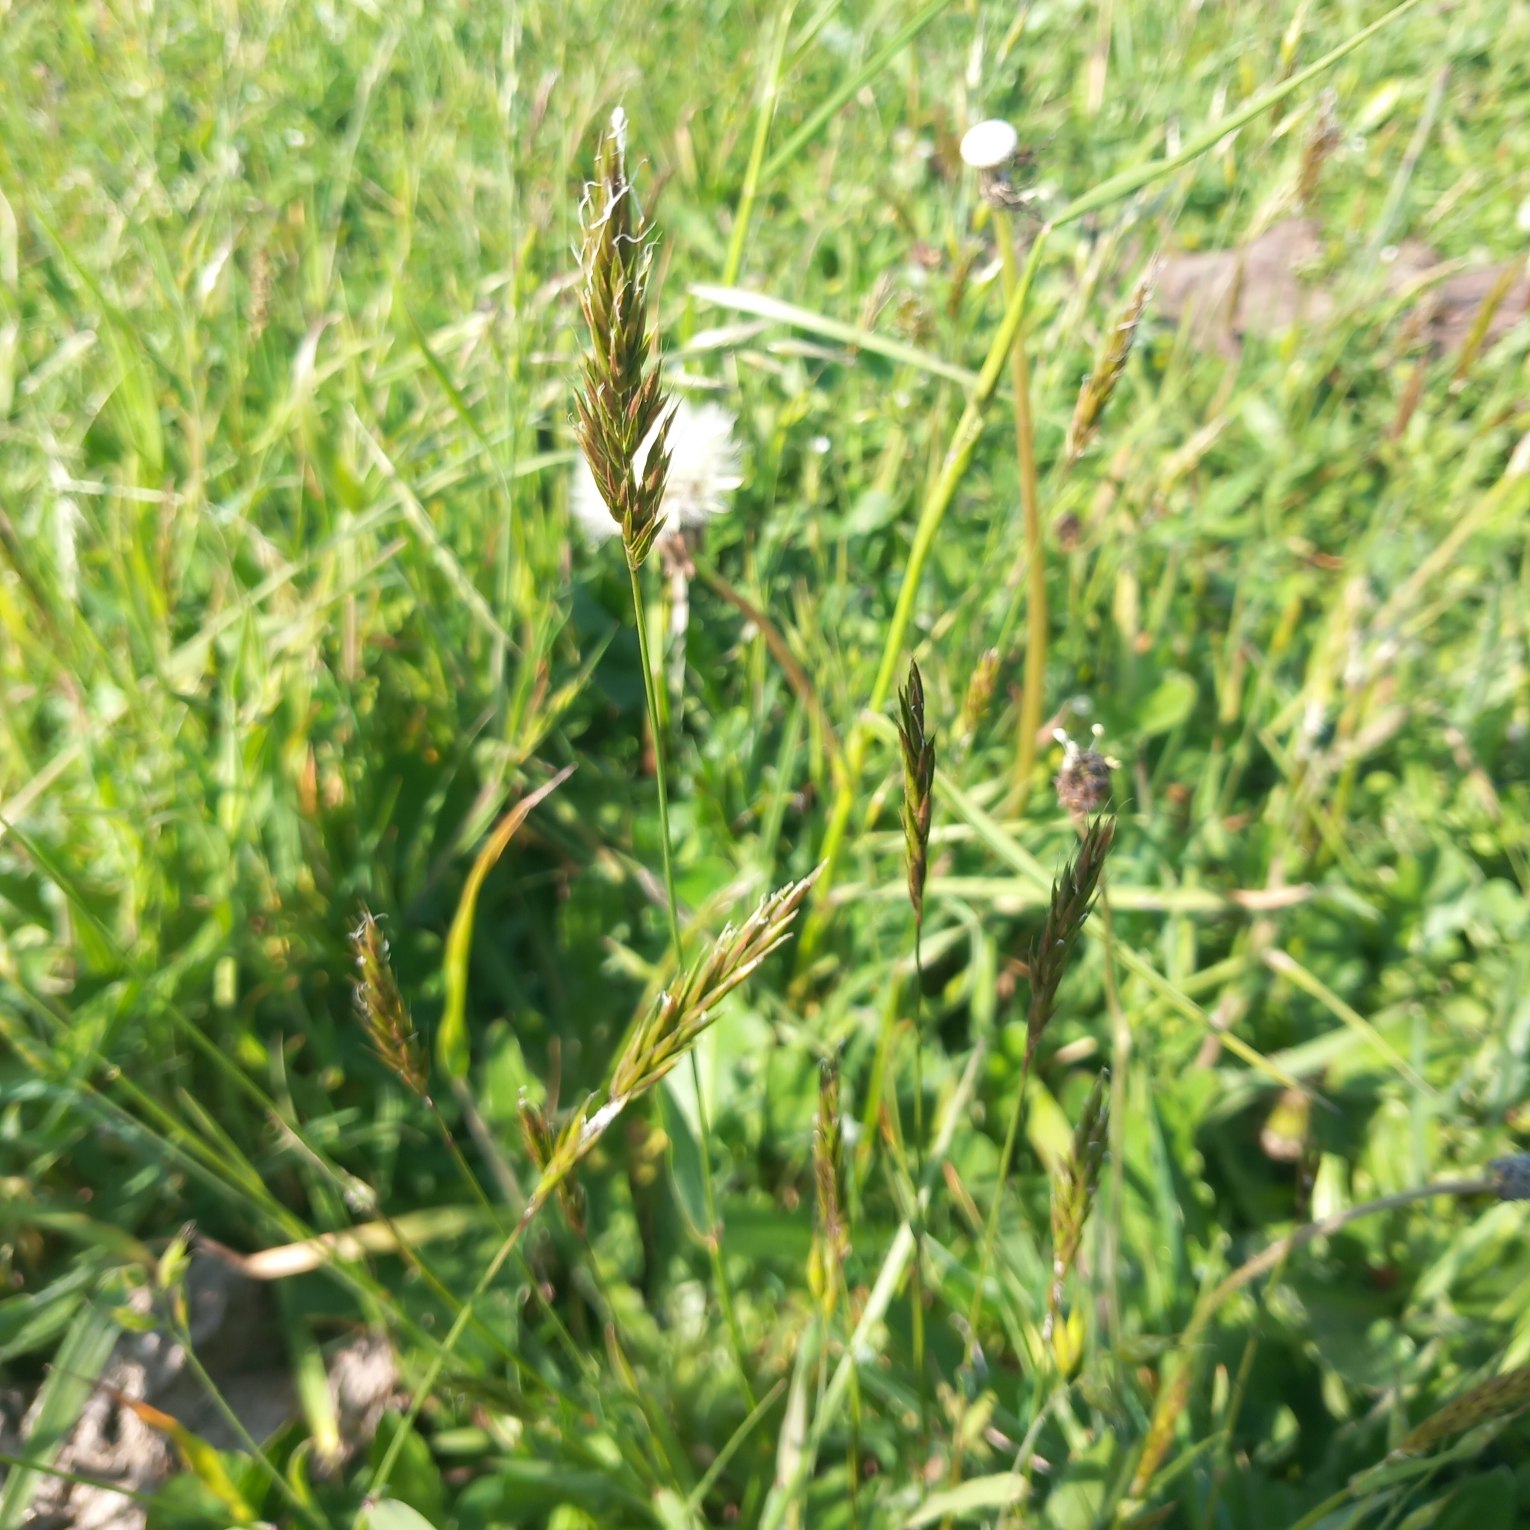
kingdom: Plantae
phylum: Tracheophyta
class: Liliopsida
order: Poales
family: Poaceae
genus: Anthoxanthum
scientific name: Anthoxanthum odoratum
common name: Vellugtende gulaks
